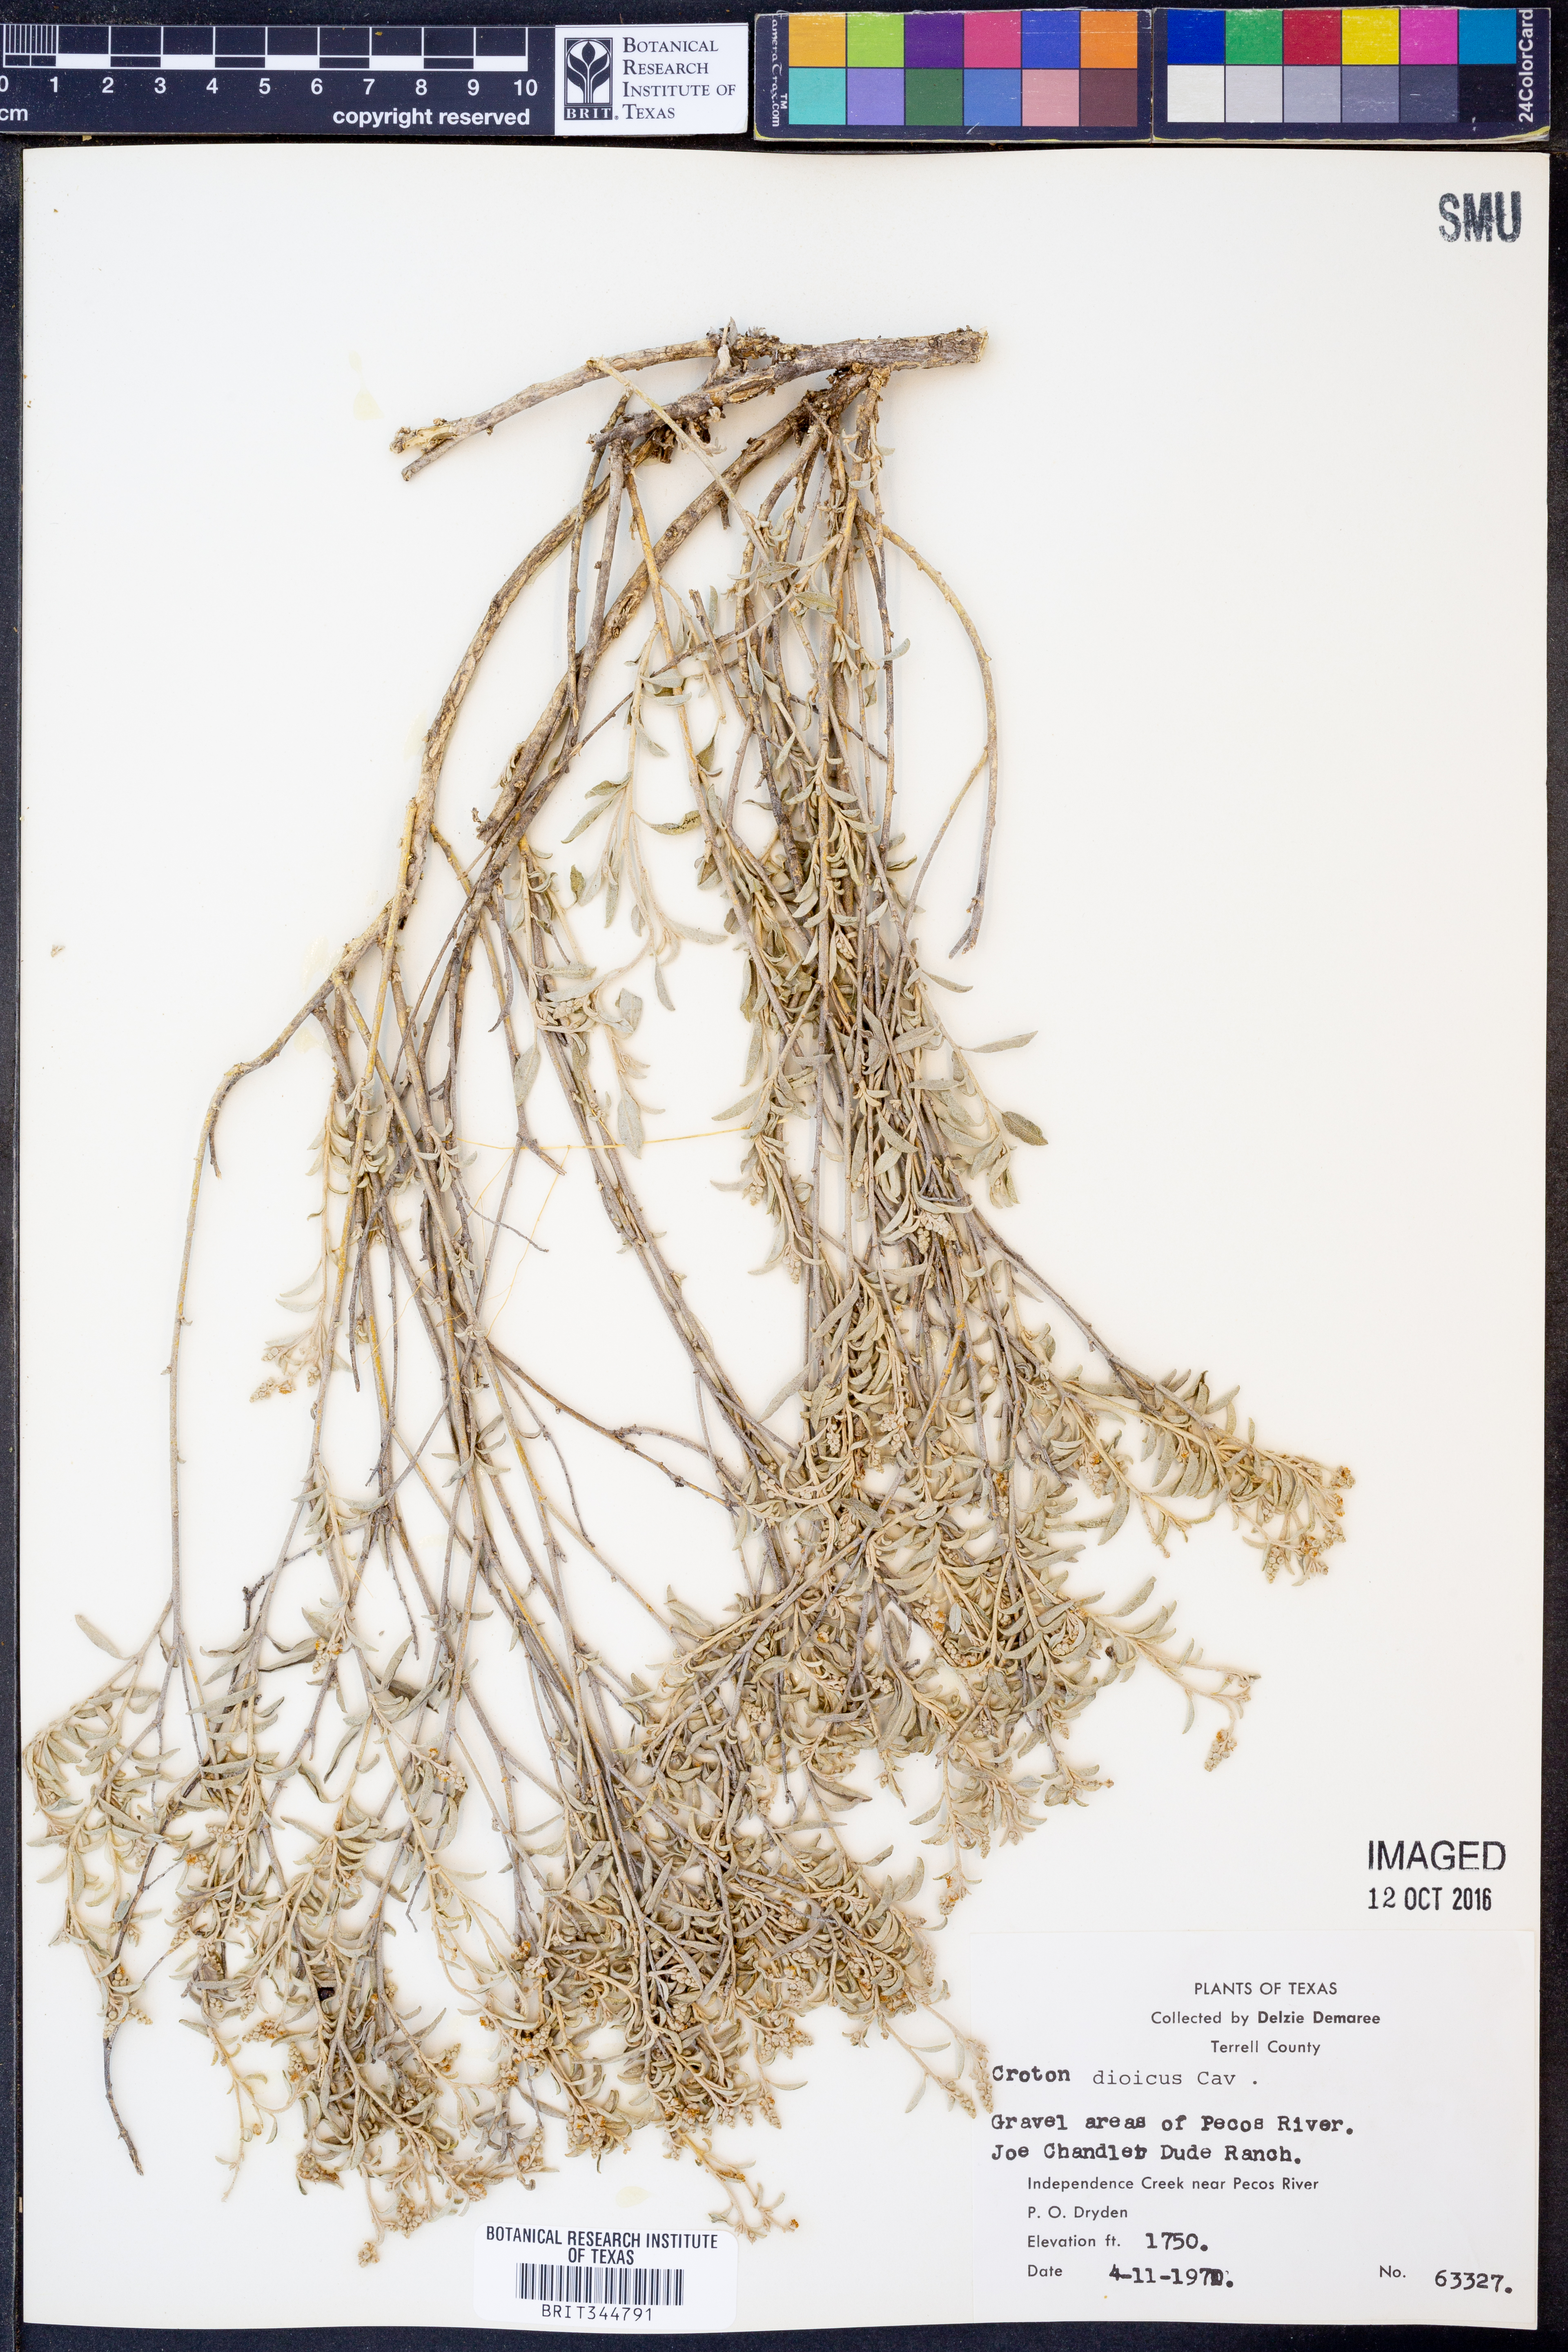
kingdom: Plantae
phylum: Tracheophyta
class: Magnoliopsida
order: Malpighiales
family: Euphorbiaceae
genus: Croton
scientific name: Croton dioicus
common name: Grassland croton
